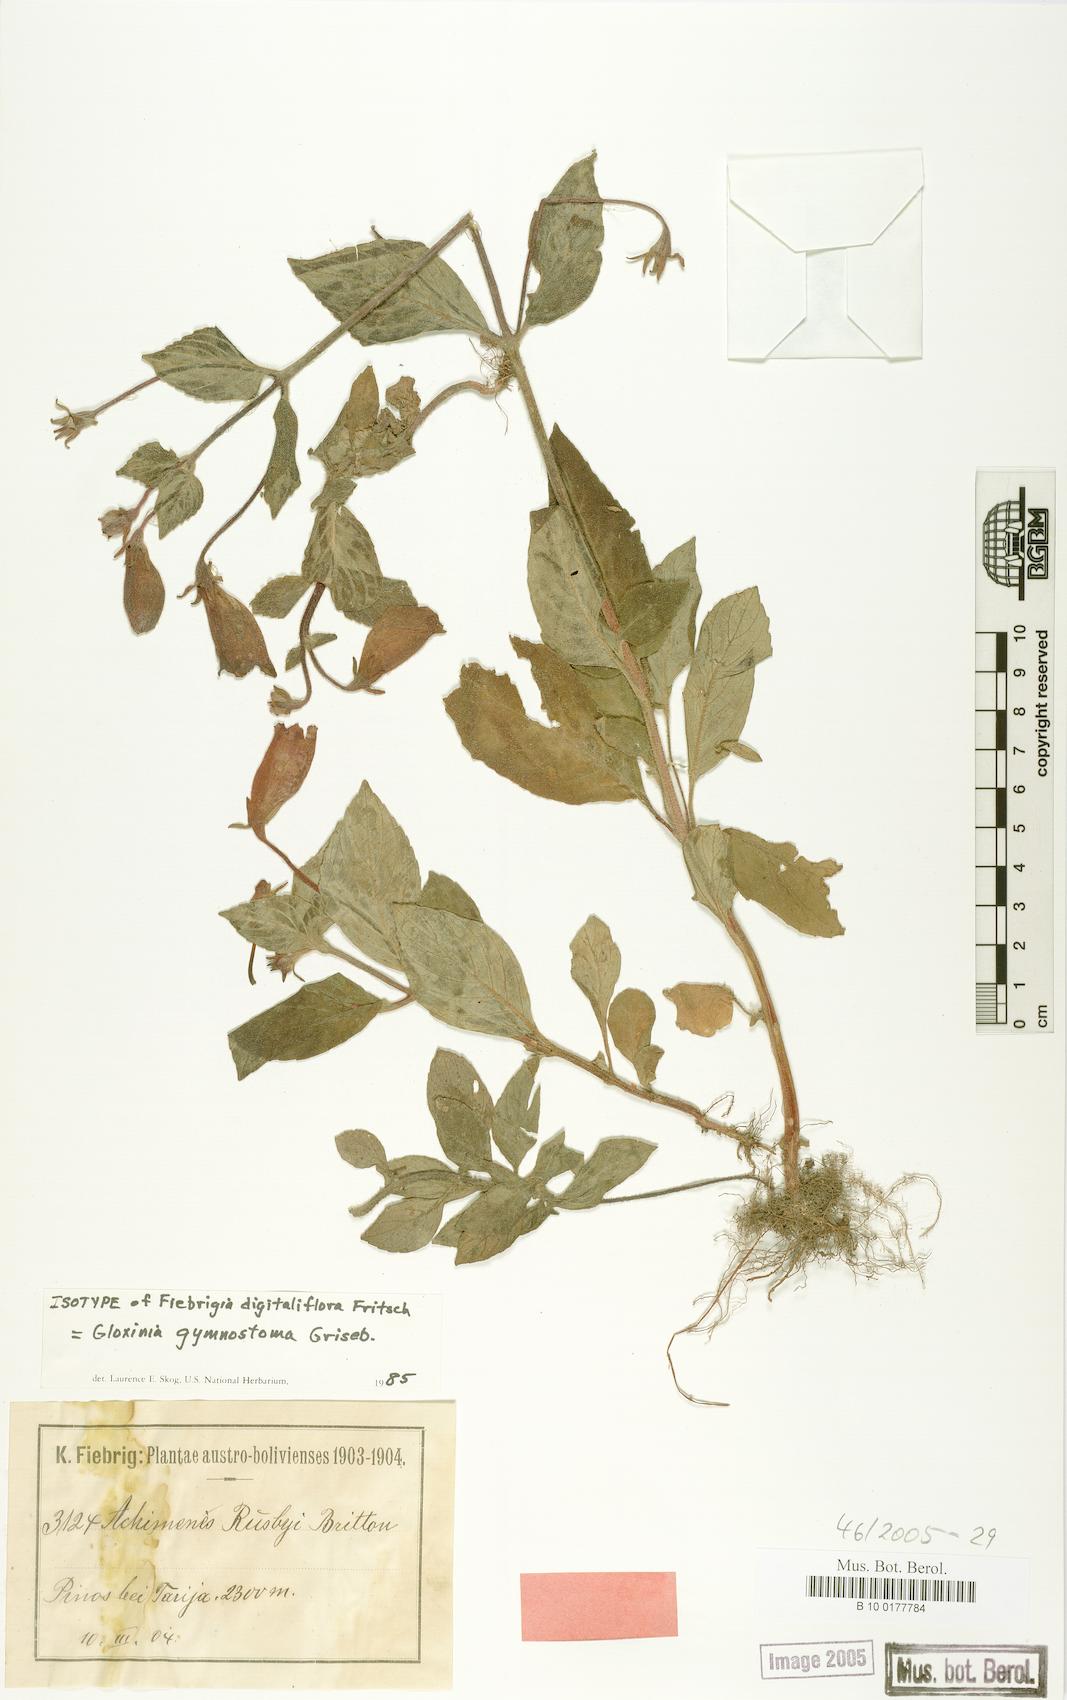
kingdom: Plantae
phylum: Tracheophyta
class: Magnoliopsida
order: Lamiales
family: Gesneriaceae
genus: Seemannia
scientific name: Seemannia gymnostoma
